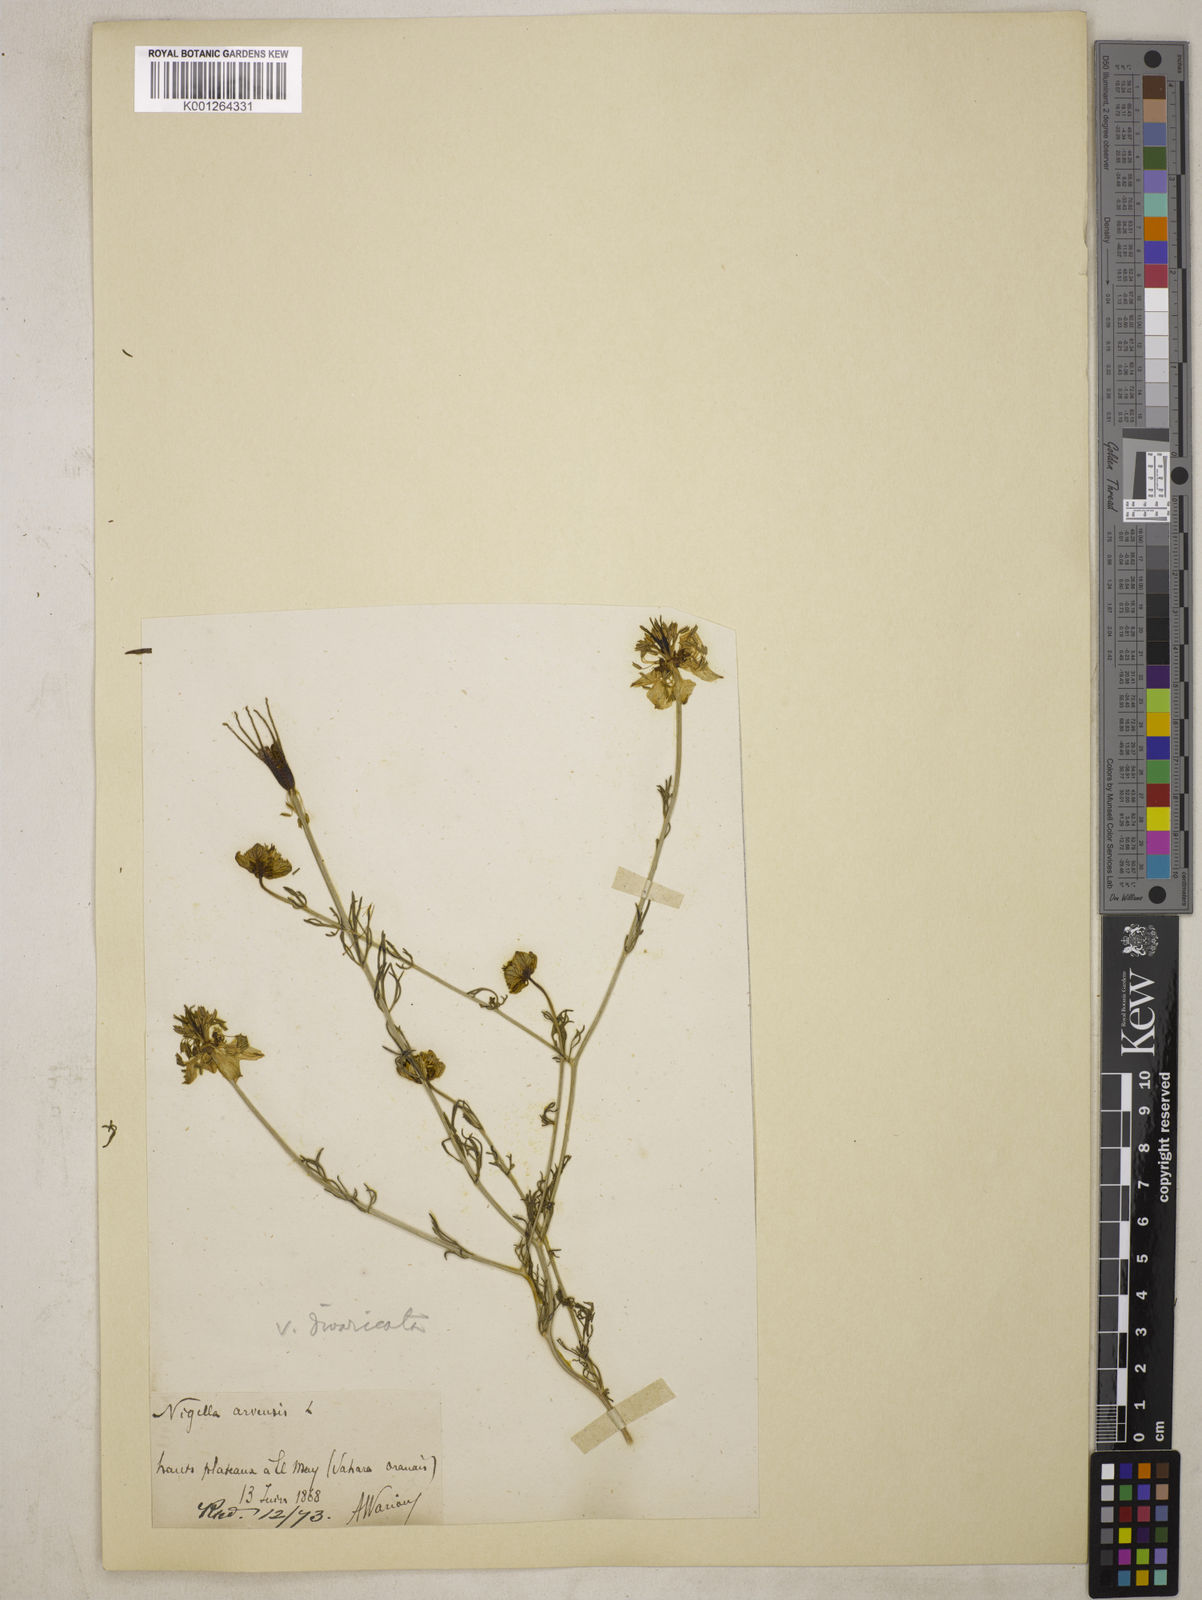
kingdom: Plantae
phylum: Tracheophyta
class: Magnoliopsida
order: Ranunculales
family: Ranunculaceae
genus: Nigella
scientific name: Nigella arvensis
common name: Wild fennel-flower
